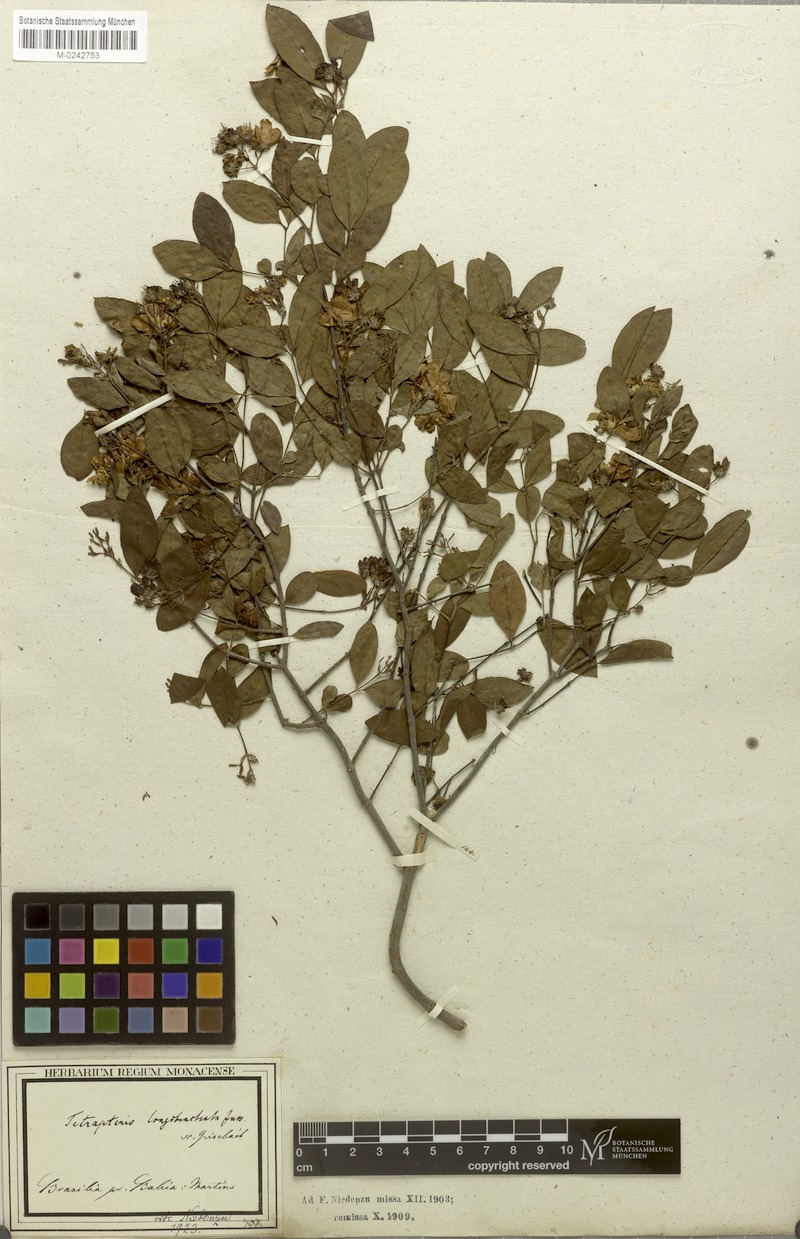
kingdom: Plantae
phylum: Tracheophyta
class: Magnoliopsida
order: Malpighiales
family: Malpighiaceae
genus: Glicophyllum
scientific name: Glicophyllum longibracteatum
